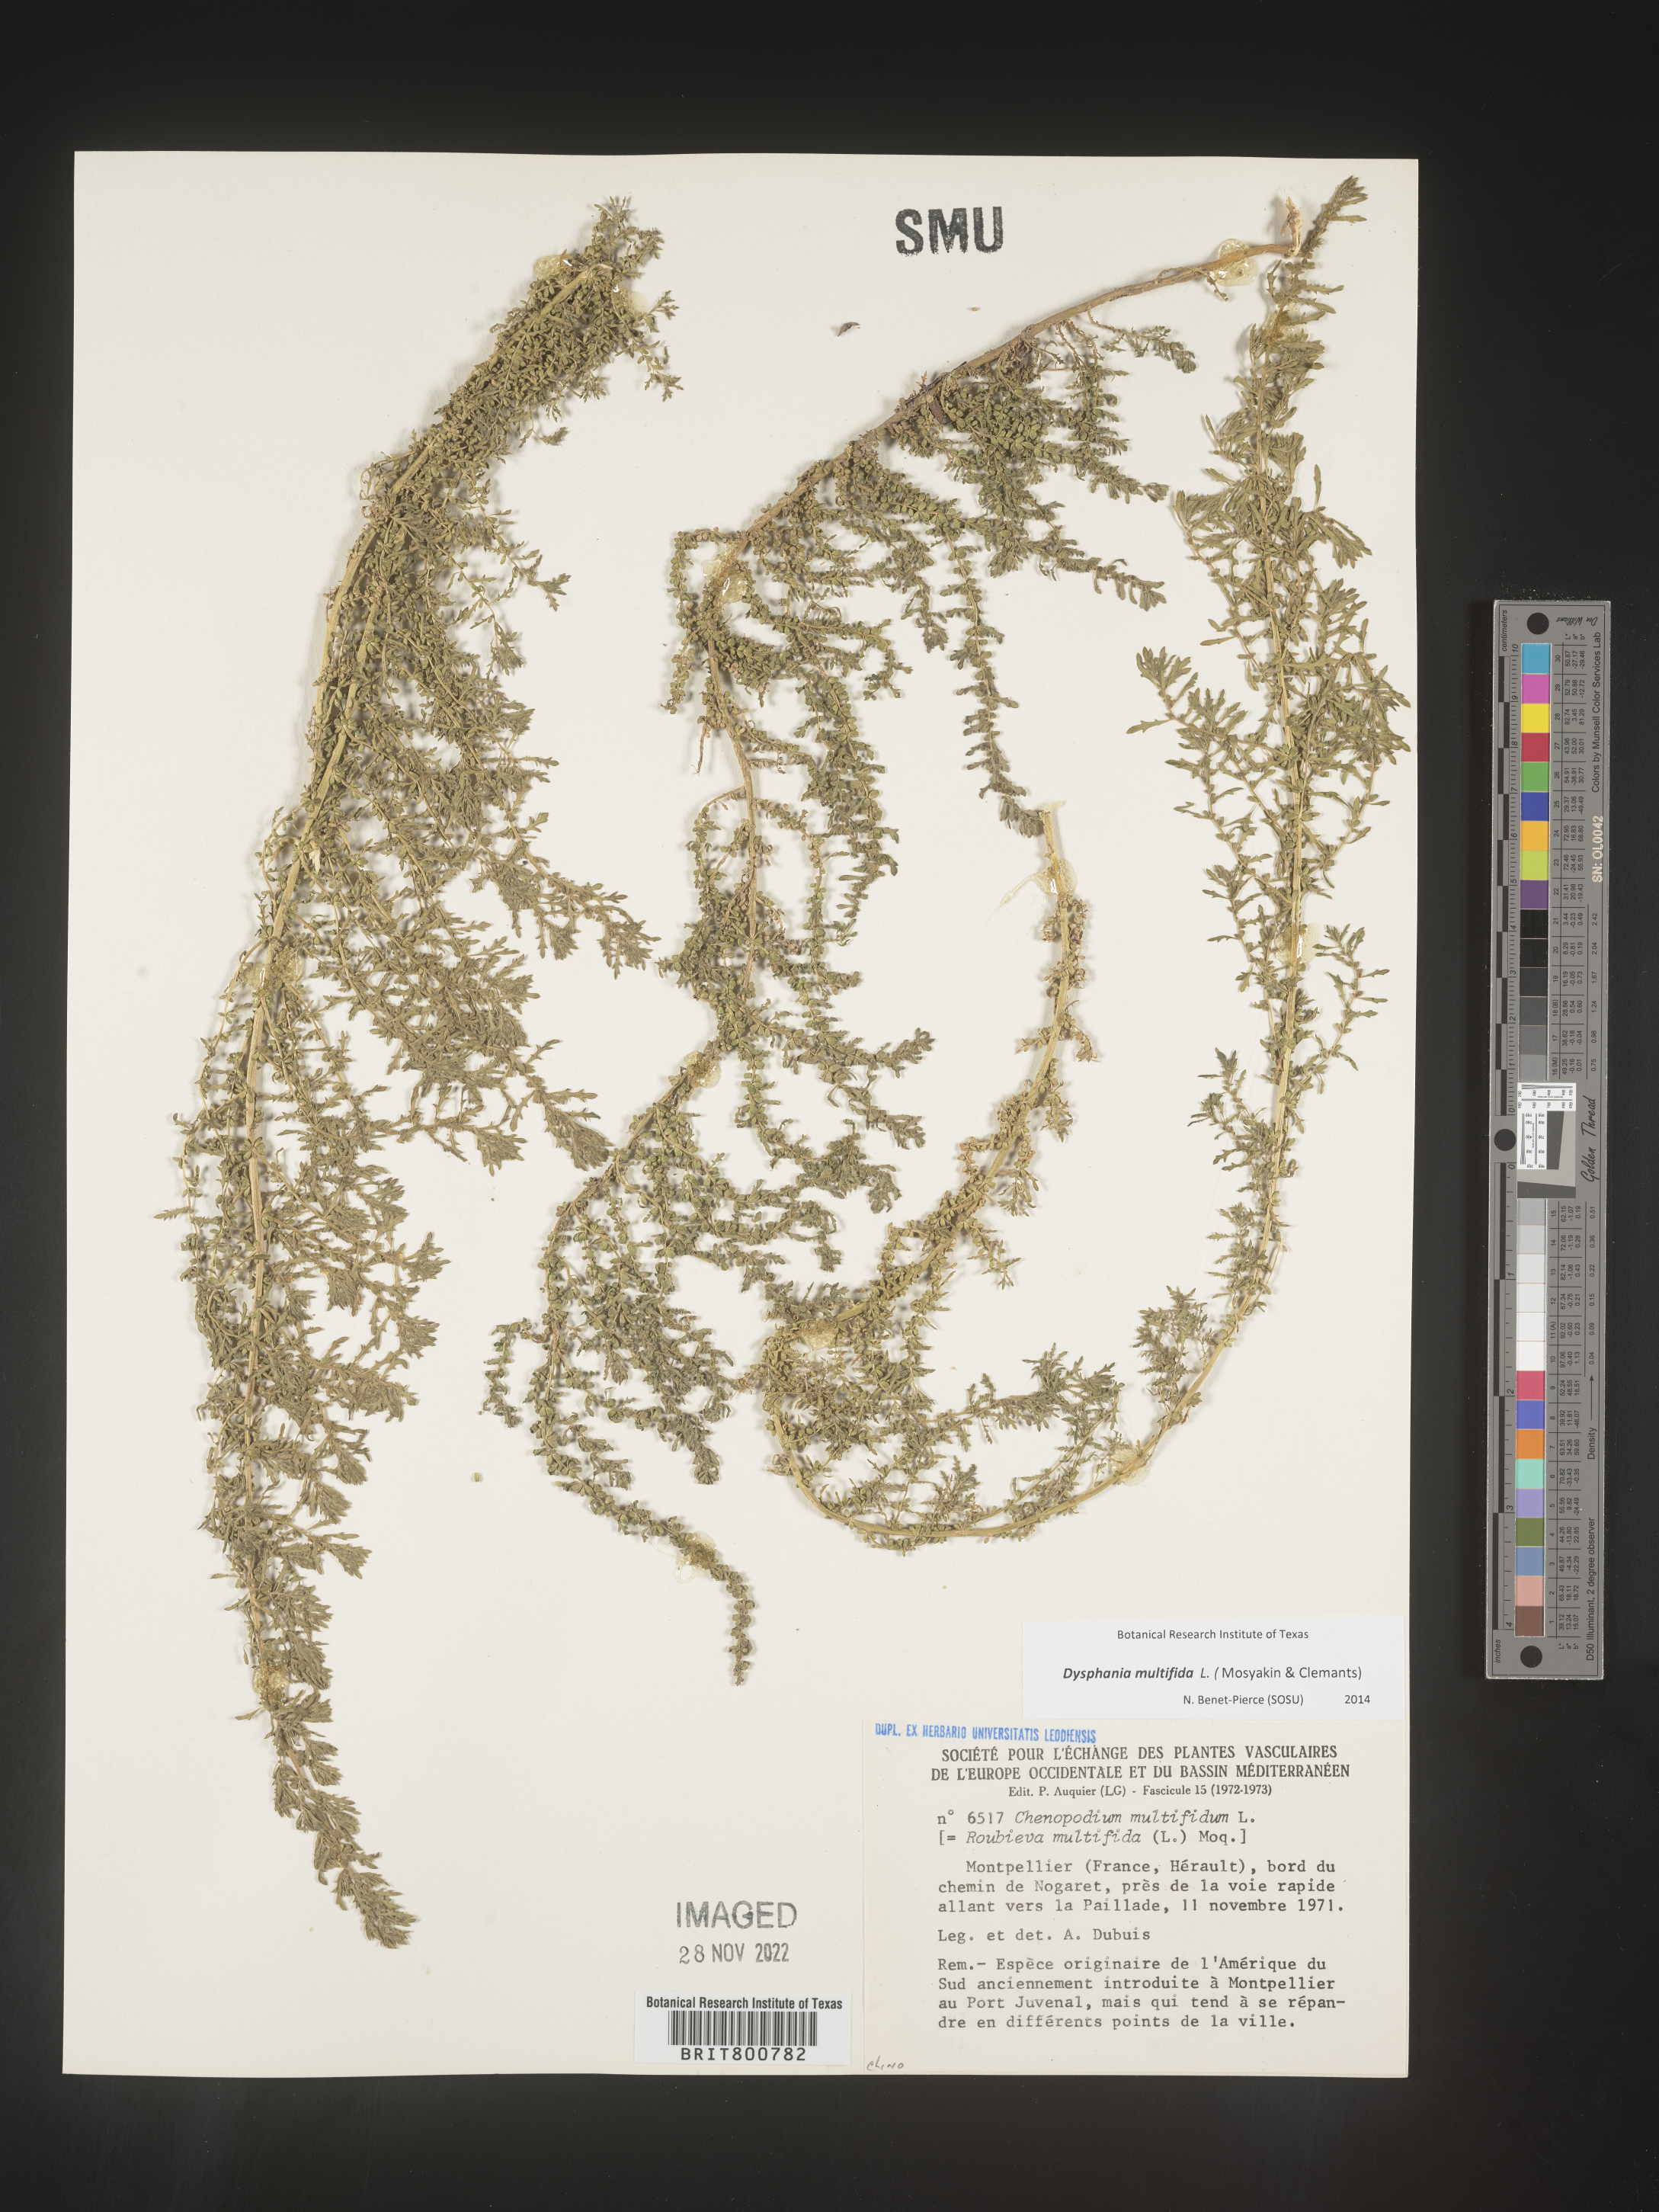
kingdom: Plantae
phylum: Tracheophyta
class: Magnoliopsida
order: Caryophyllales
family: Amaranthaceae
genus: Chenopodium
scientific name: Chenopodium
